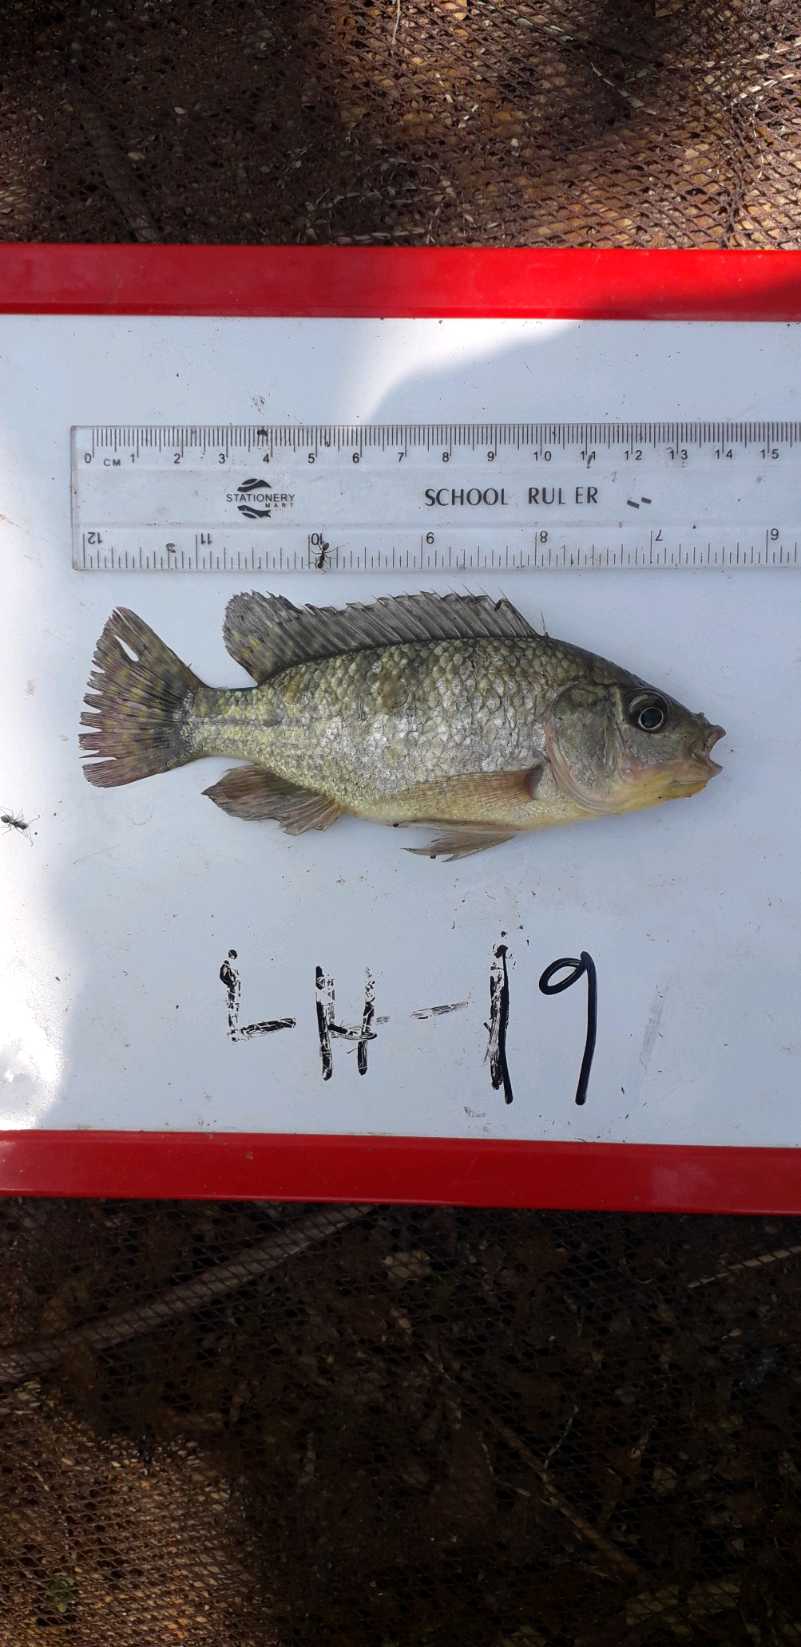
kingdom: Animalia
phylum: Chordata
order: Perciformes
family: Cichlidae
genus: Oreochromis
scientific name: Oreochromis
